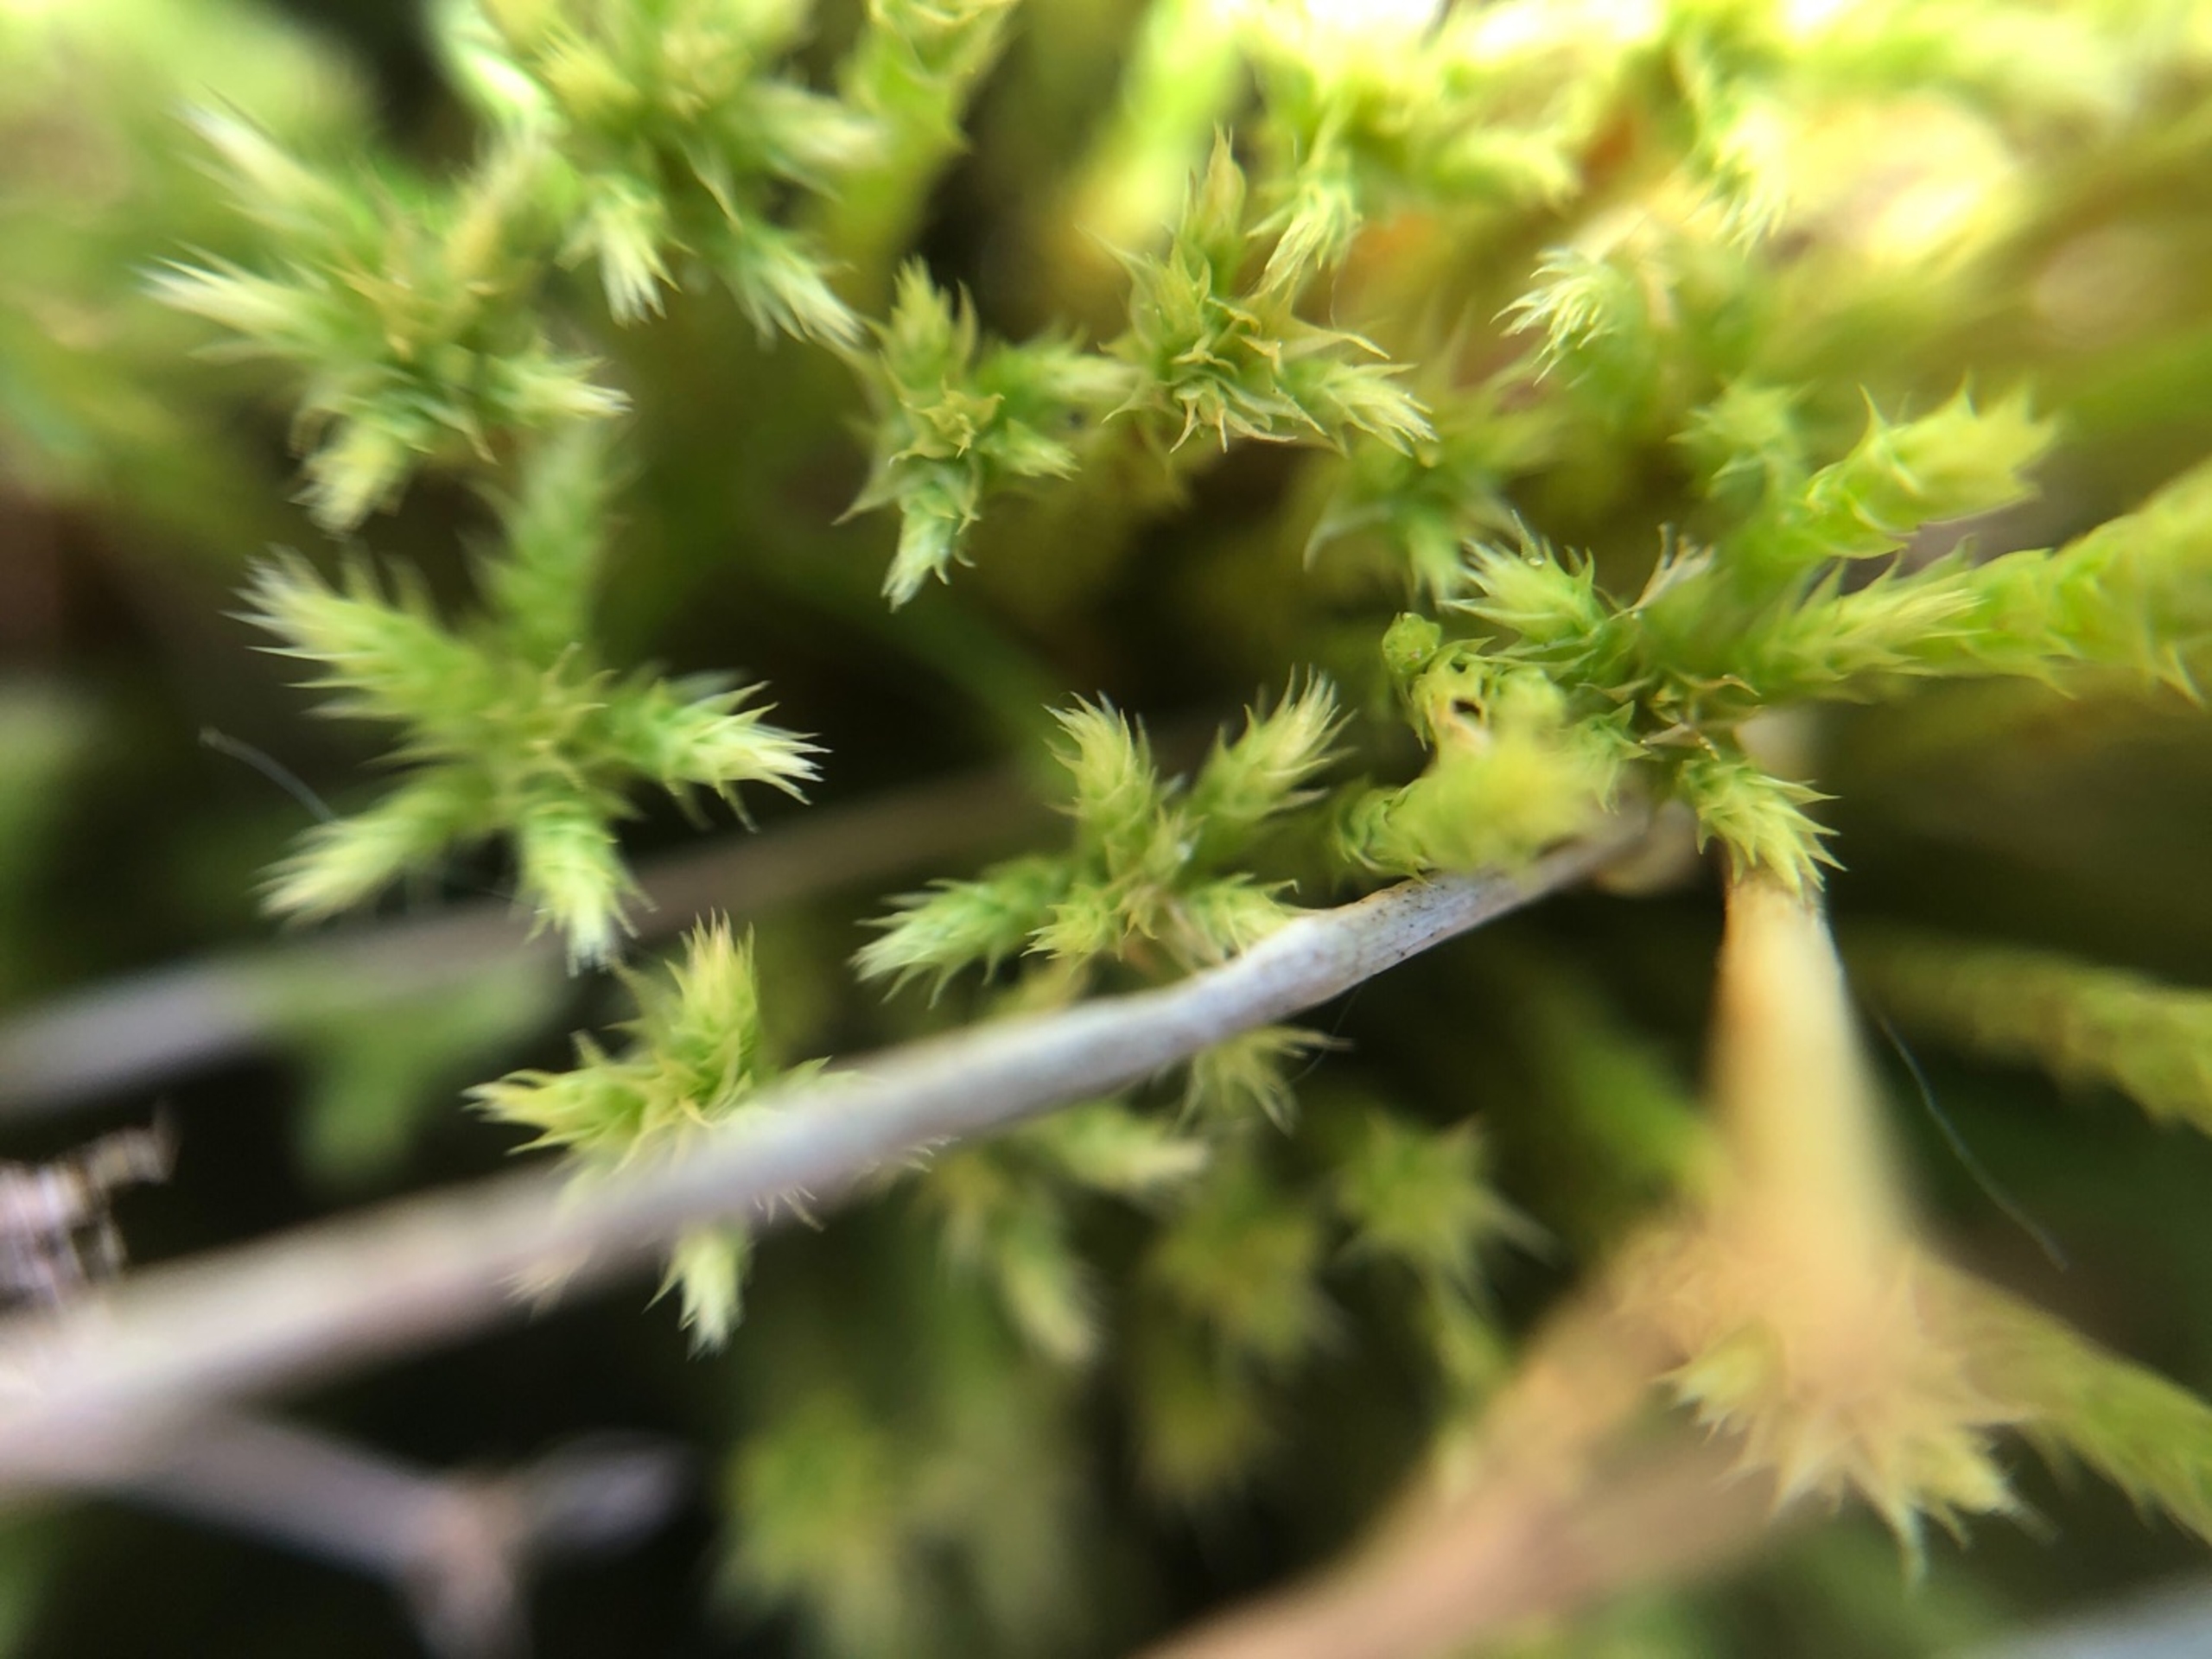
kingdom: Plantae
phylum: Bryophyta
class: Bryopsida
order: Bartramiales
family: Bartramiaceae
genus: Philonotis
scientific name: Philonotis fontana
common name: Kilde-vandtuemos
